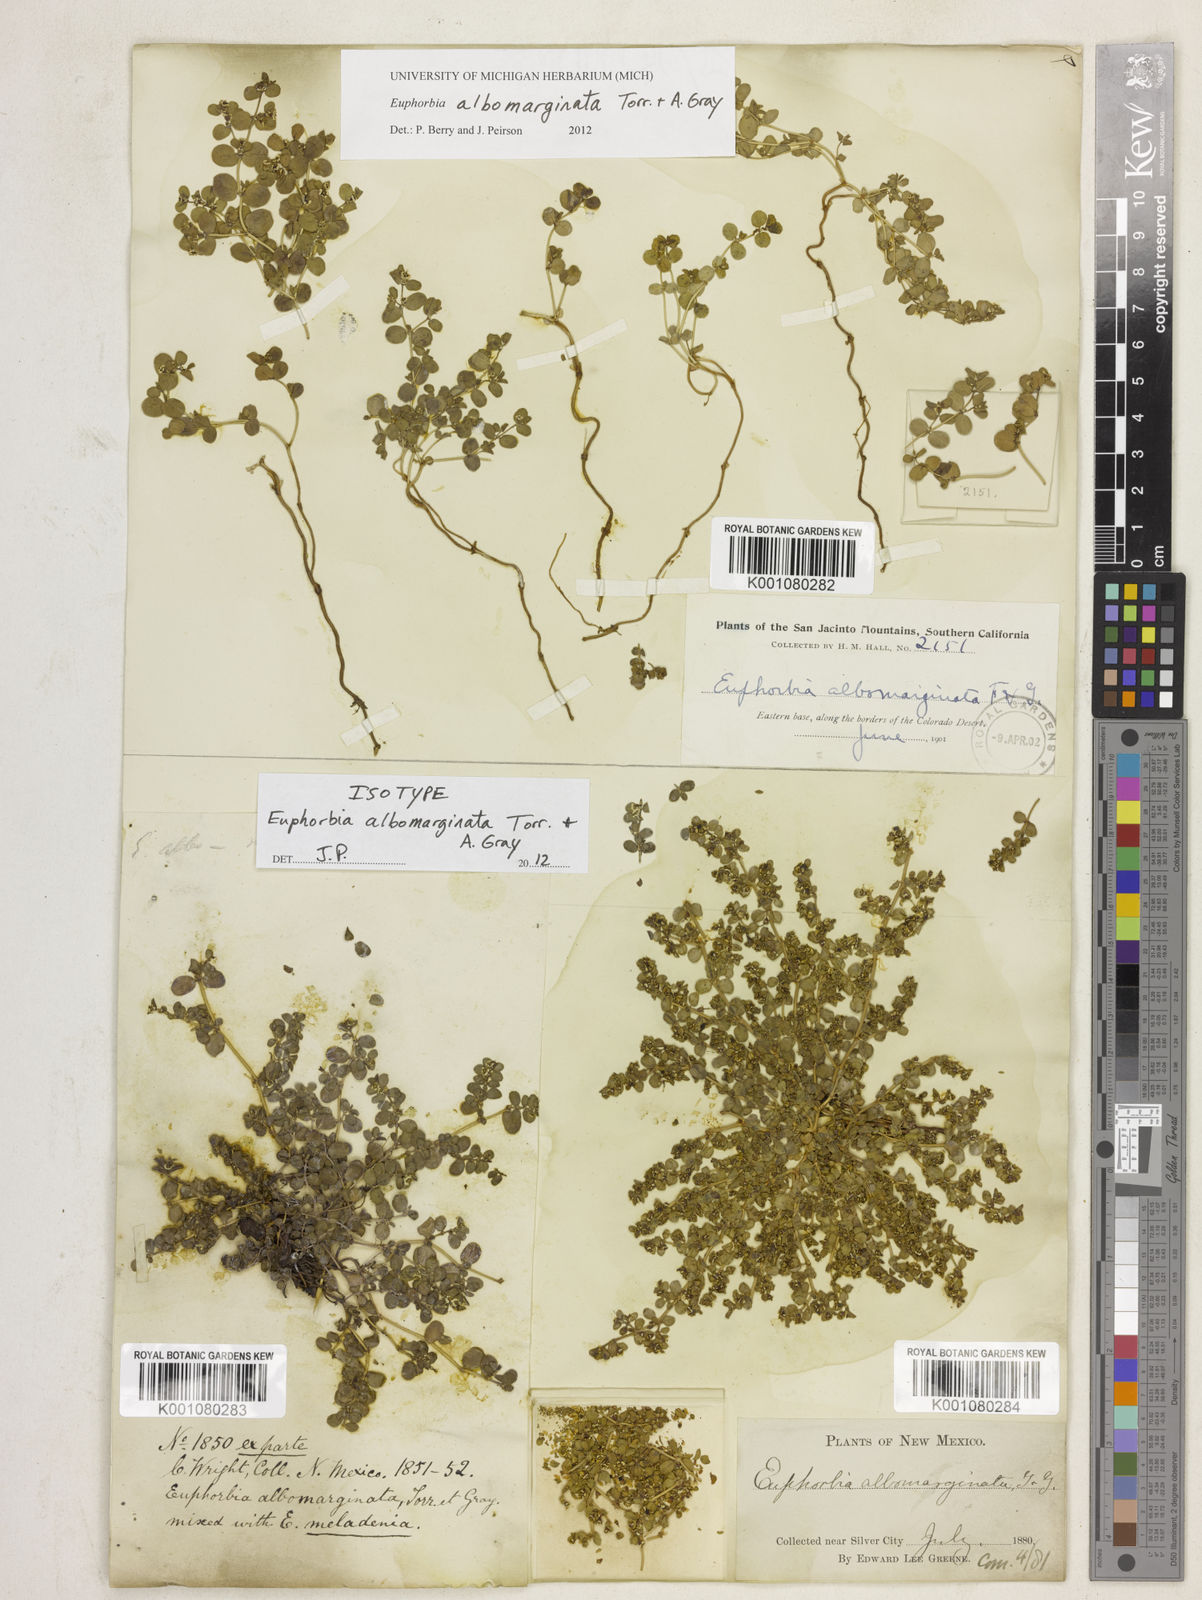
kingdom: Plantae
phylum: Tracheophyta
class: Magnoliopsida
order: Malpighiales
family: Euphorbiaceae
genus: Euphorbia
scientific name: Euphorbia albomarginata
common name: Whitemargin sandmat
